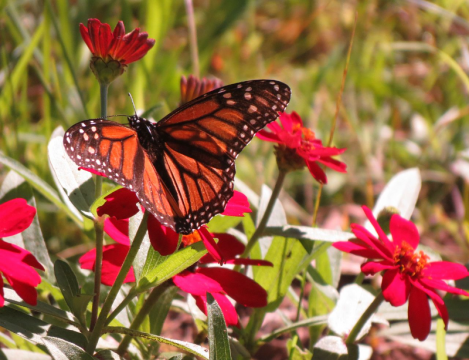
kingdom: Animalia
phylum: Arthropoda
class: Insecta
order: Lepidoptera
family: Nymphalidae
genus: Danaus
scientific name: Danaus plexippus
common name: Monarch
